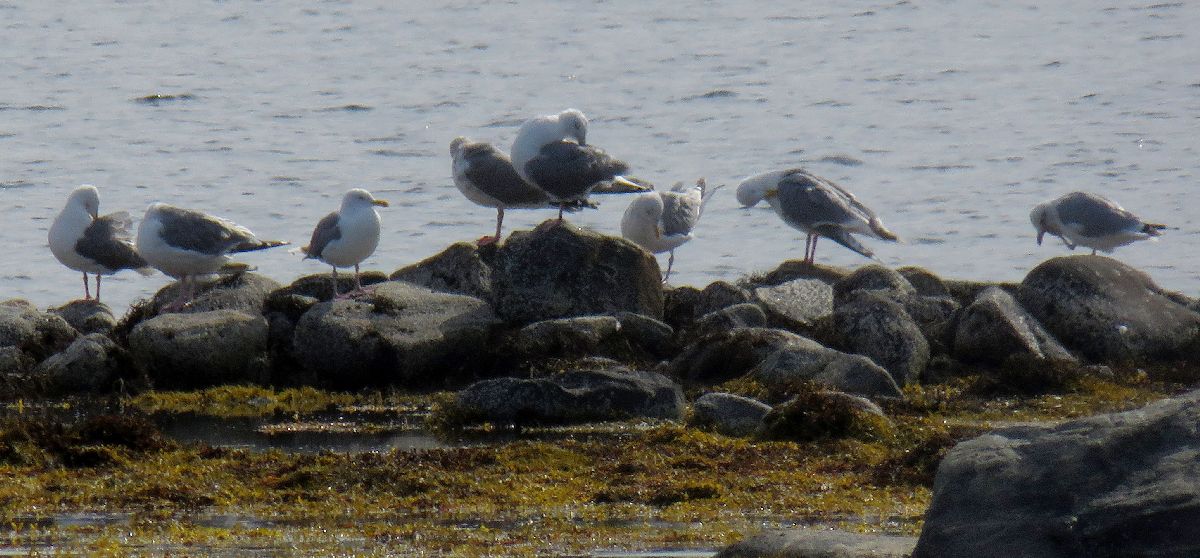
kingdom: Animalia
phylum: Chordata
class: Aves
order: Charadriiformes
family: Laridae
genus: Larus
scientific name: Larus argentatus
